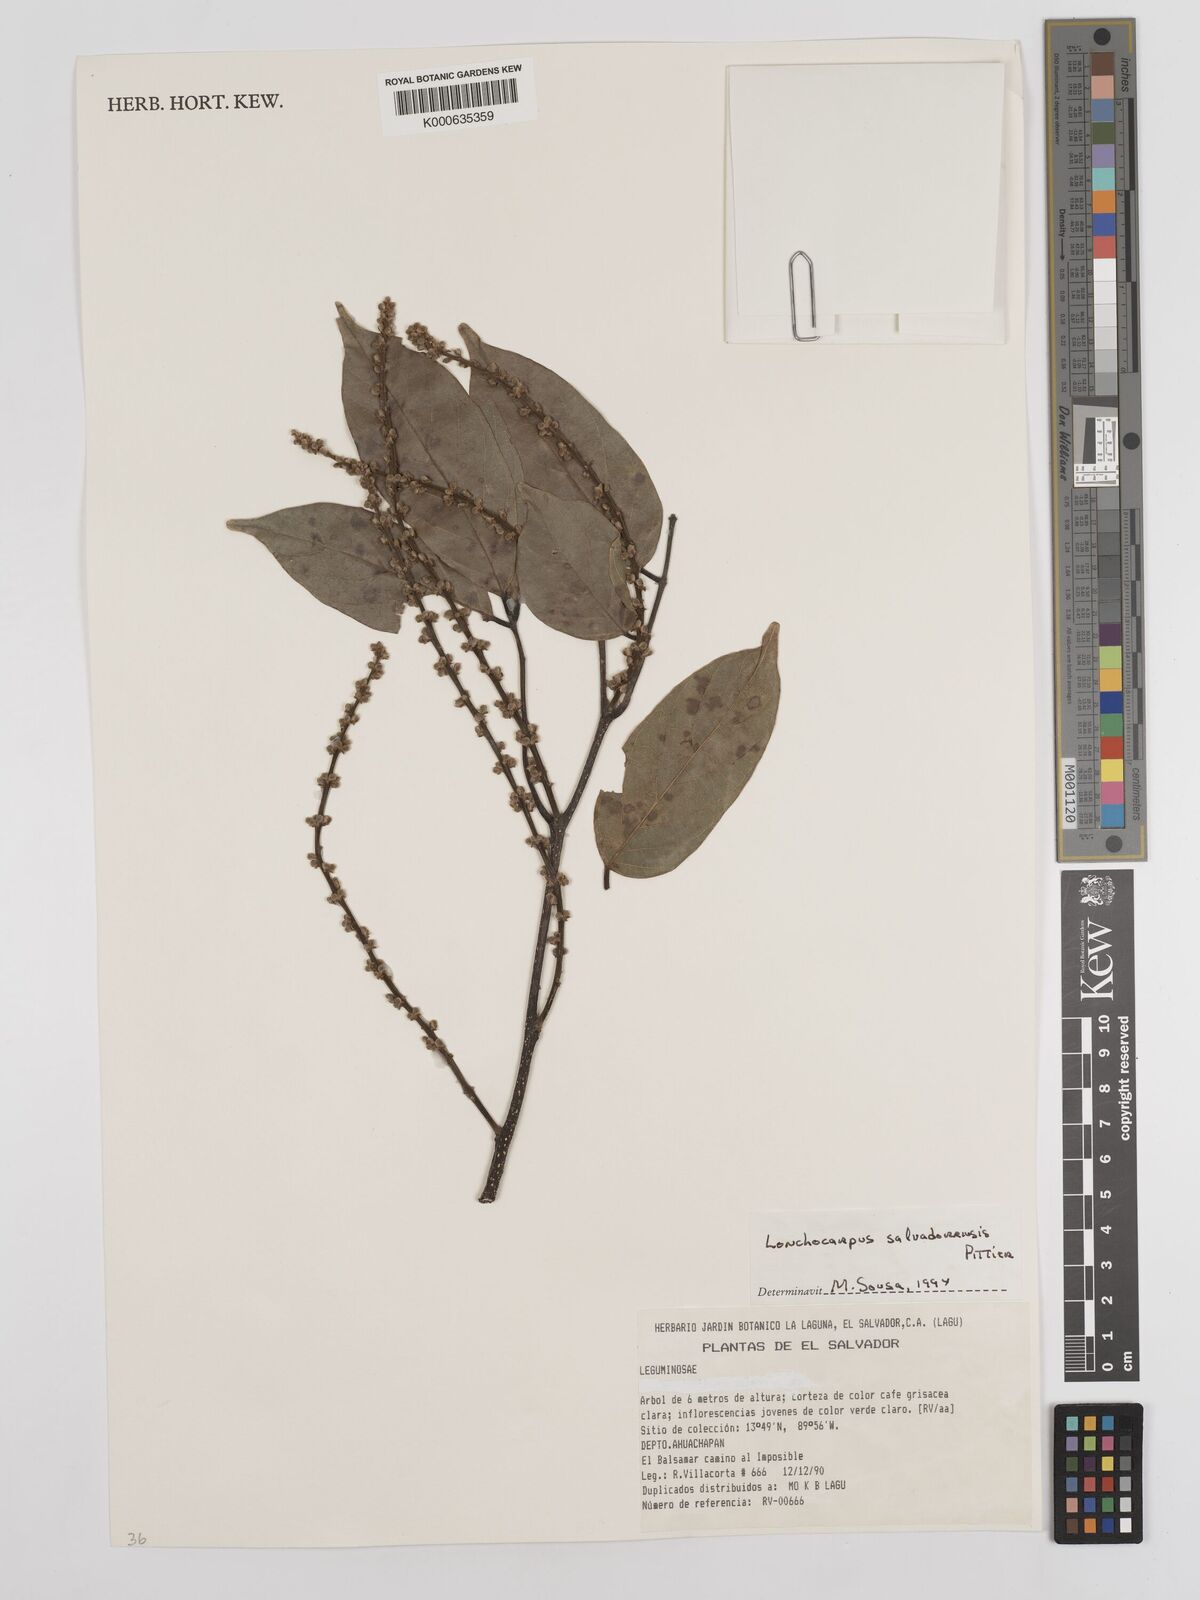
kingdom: Plantae
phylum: Tracheophyta
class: Magnoliopsida
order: Fabales
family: Fabaceae
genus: Lonchocarpus
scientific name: Lonchocarpus salvadorensis
